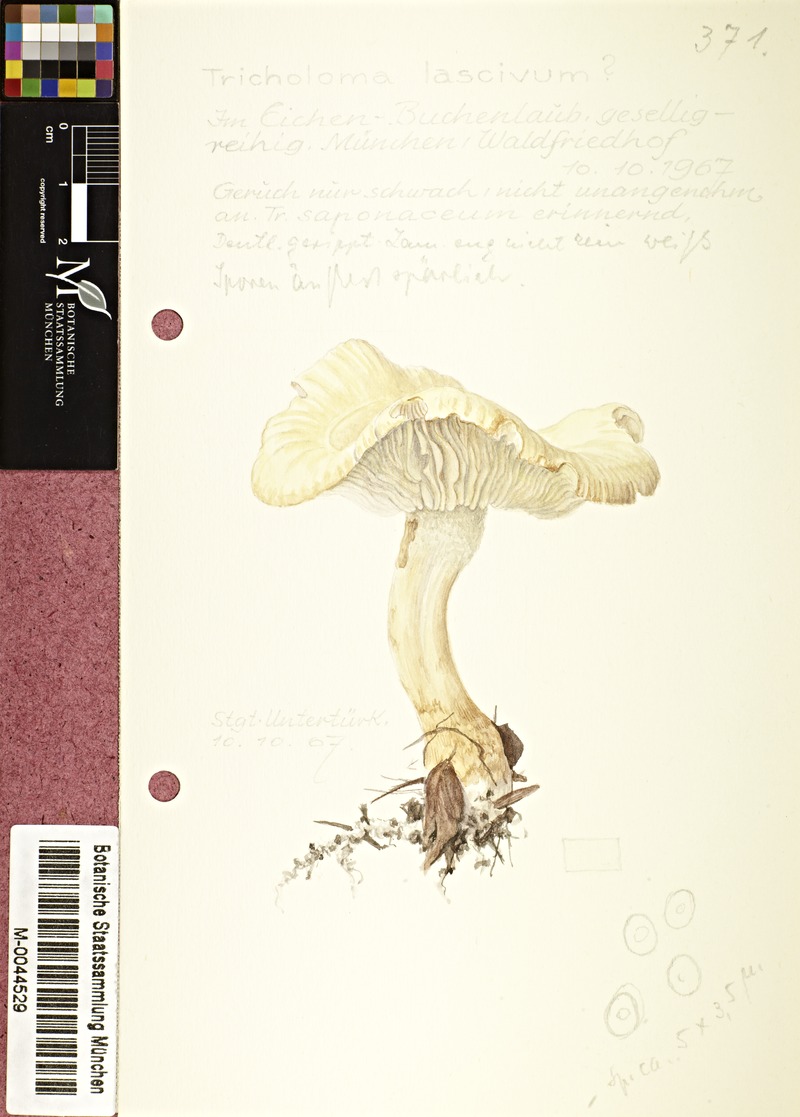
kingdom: Fungi
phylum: Basidiomycota
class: Agaricomycetes
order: Agaricales
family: Tricholomataceae
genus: Tricholoma
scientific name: Tricholoma lascivum
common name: Aromatic knight
